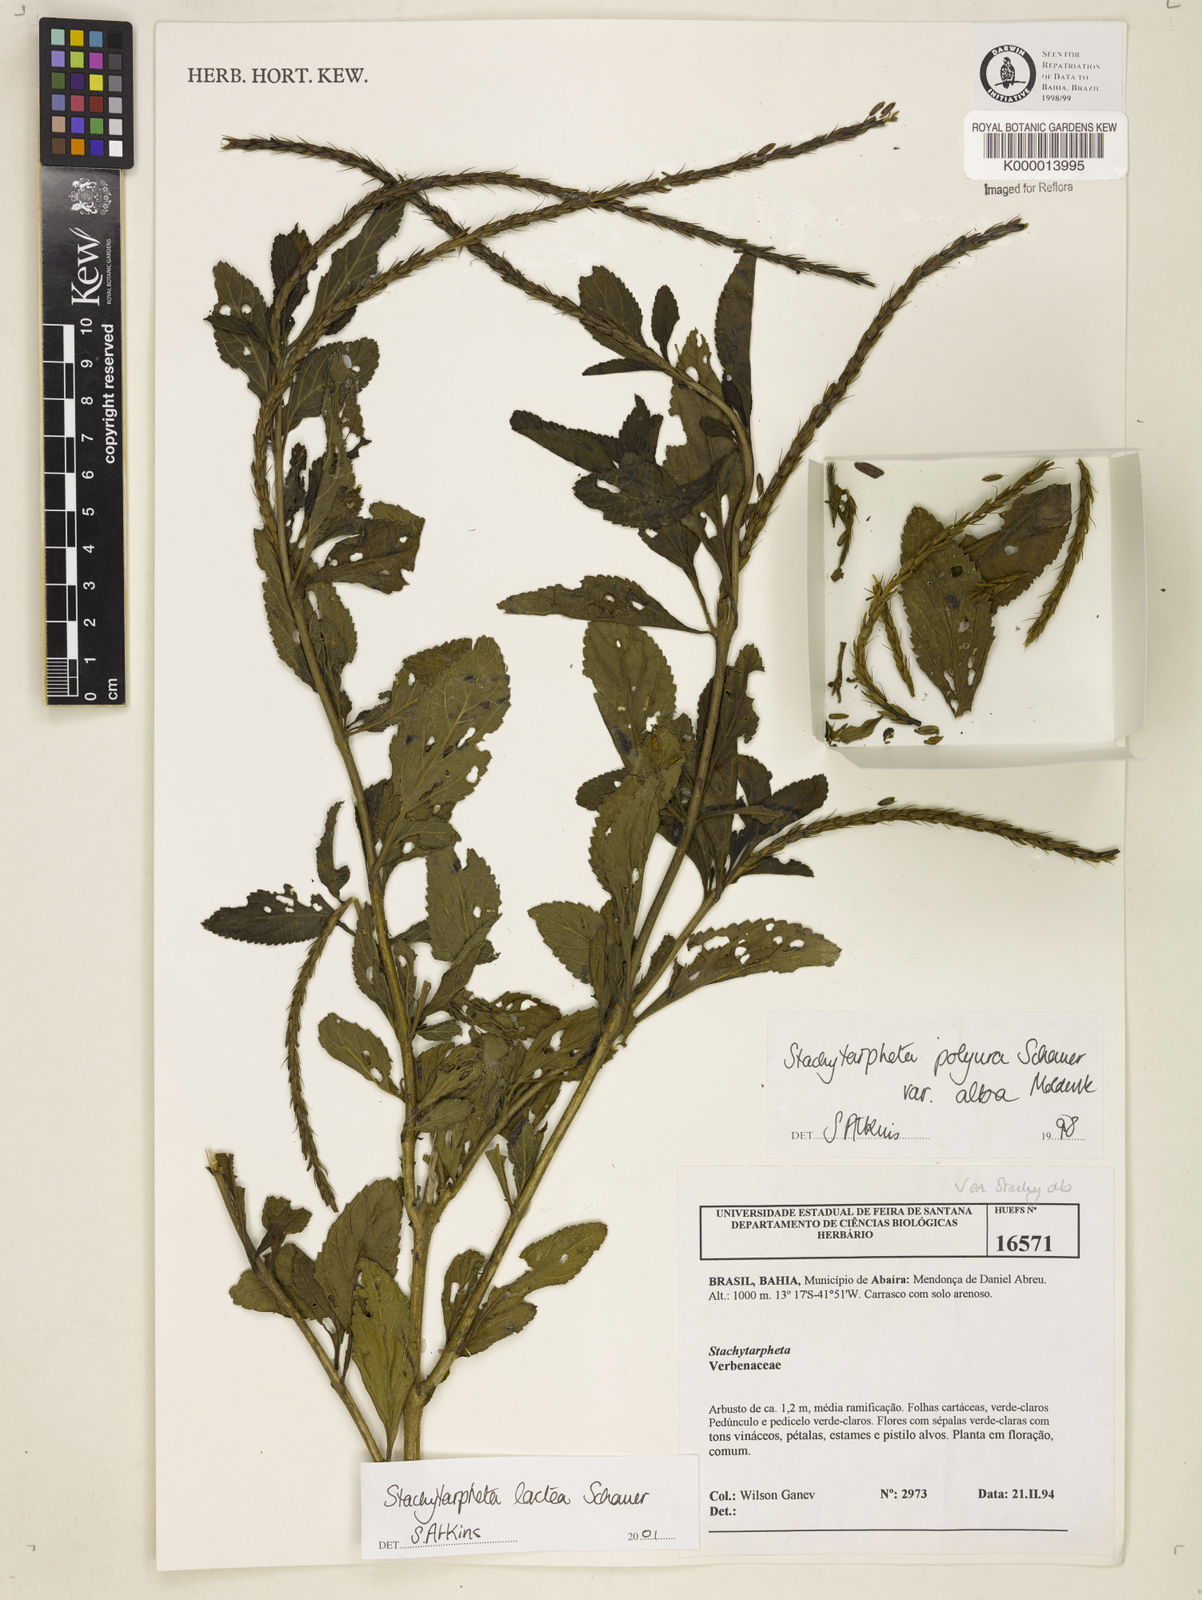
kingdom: Plantae
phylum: Tracheophyta
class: Magnoliopsida
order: Lamiales
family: Verbenaceae
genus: Stachytarpheta
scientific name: Stachytarpheta polyura
